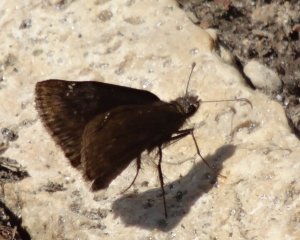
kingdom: Animalia
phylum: Arthropoda
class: Insecta
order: Lepidoptera
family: Hesperiidae
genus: Gesta
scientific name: Gesta
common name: Wild Indigo Duskywing
